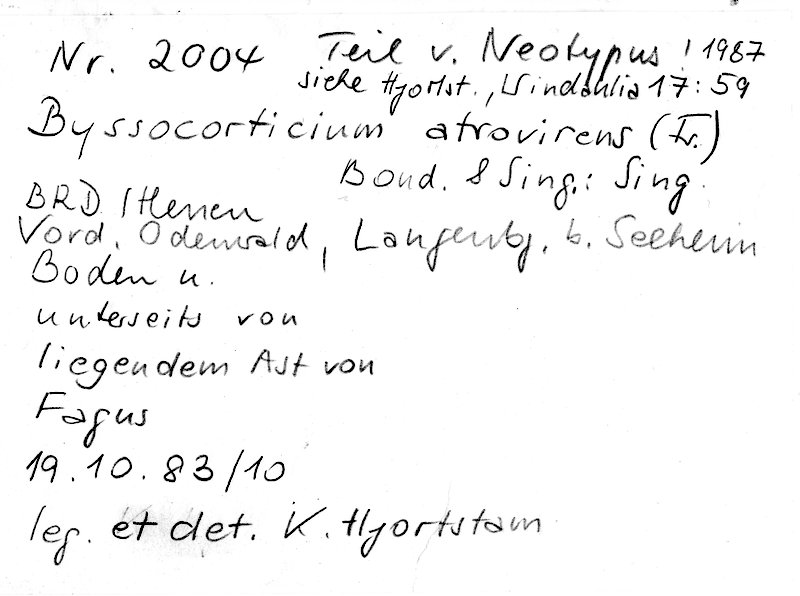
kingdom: Fungi
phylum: Basidiomycota
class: Agaricomycetes
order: Atheliales
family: Atheliaceae
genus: Byssocorticium
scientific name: Byssocorticium atrovirens
